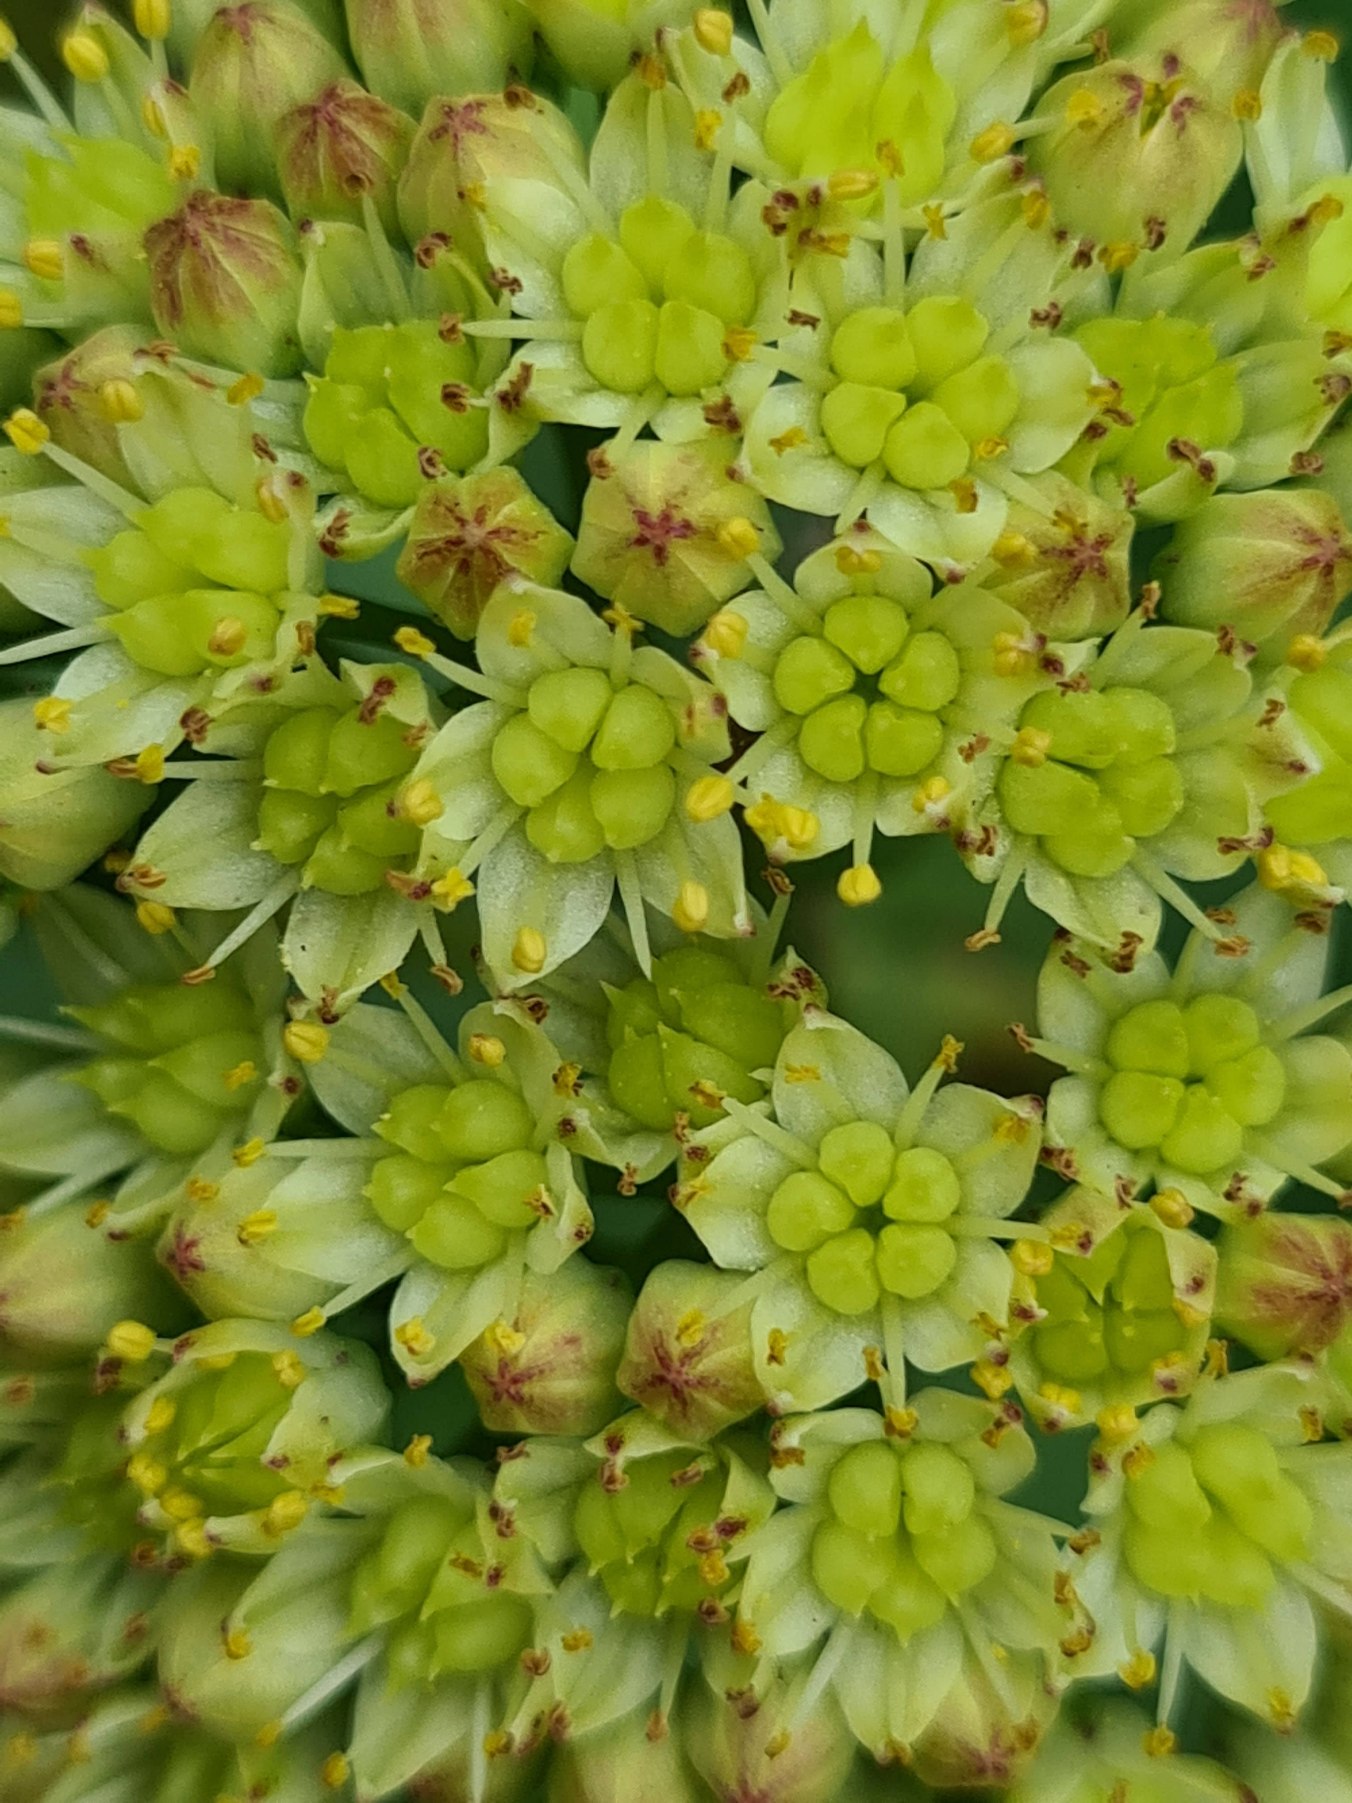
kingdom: Plantae
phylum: Tracheophyta
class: Magnoliopsida
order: Saxifragales
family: Crassulaceae
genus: Hylotelephium
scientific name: Hylotelephium maximum
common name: Almindelig sankthansurt
